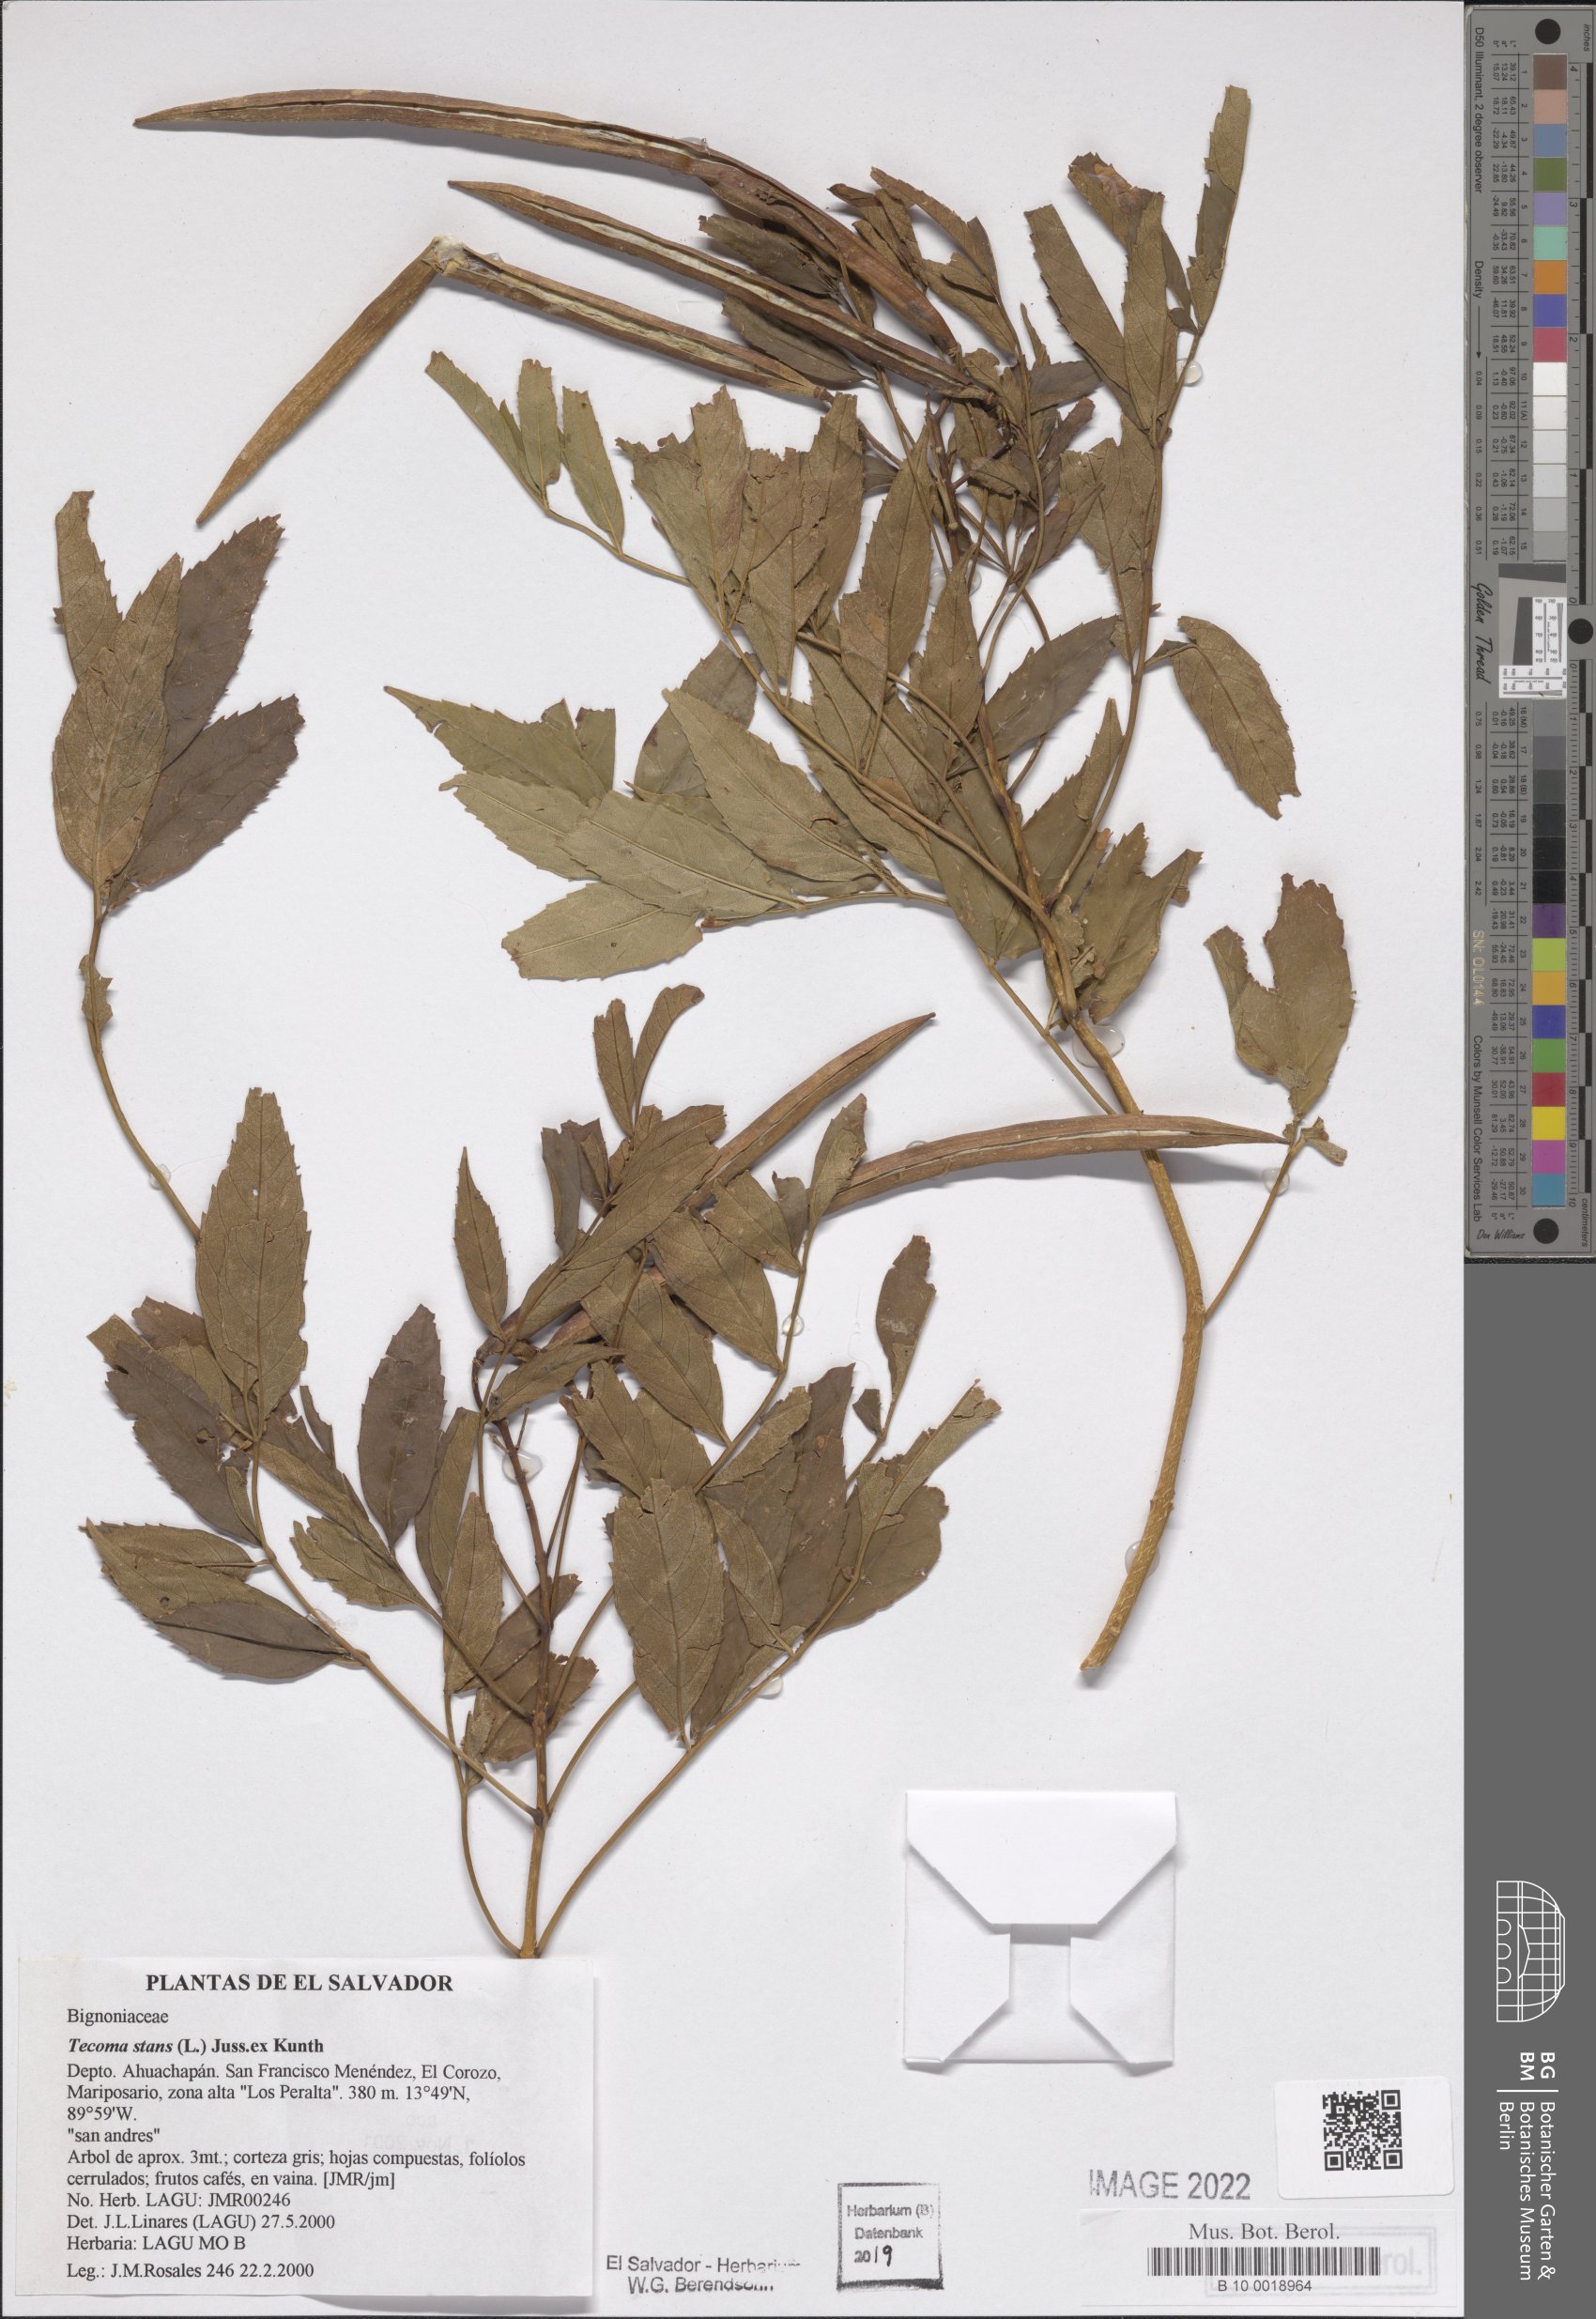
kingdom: Plantae
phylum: Tracheophyta
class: Magnoliopsida
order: Lamiales
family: Bignoniaceae
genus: Tecoma
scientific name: Tecoma stans
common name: Yellow trumpetbush
